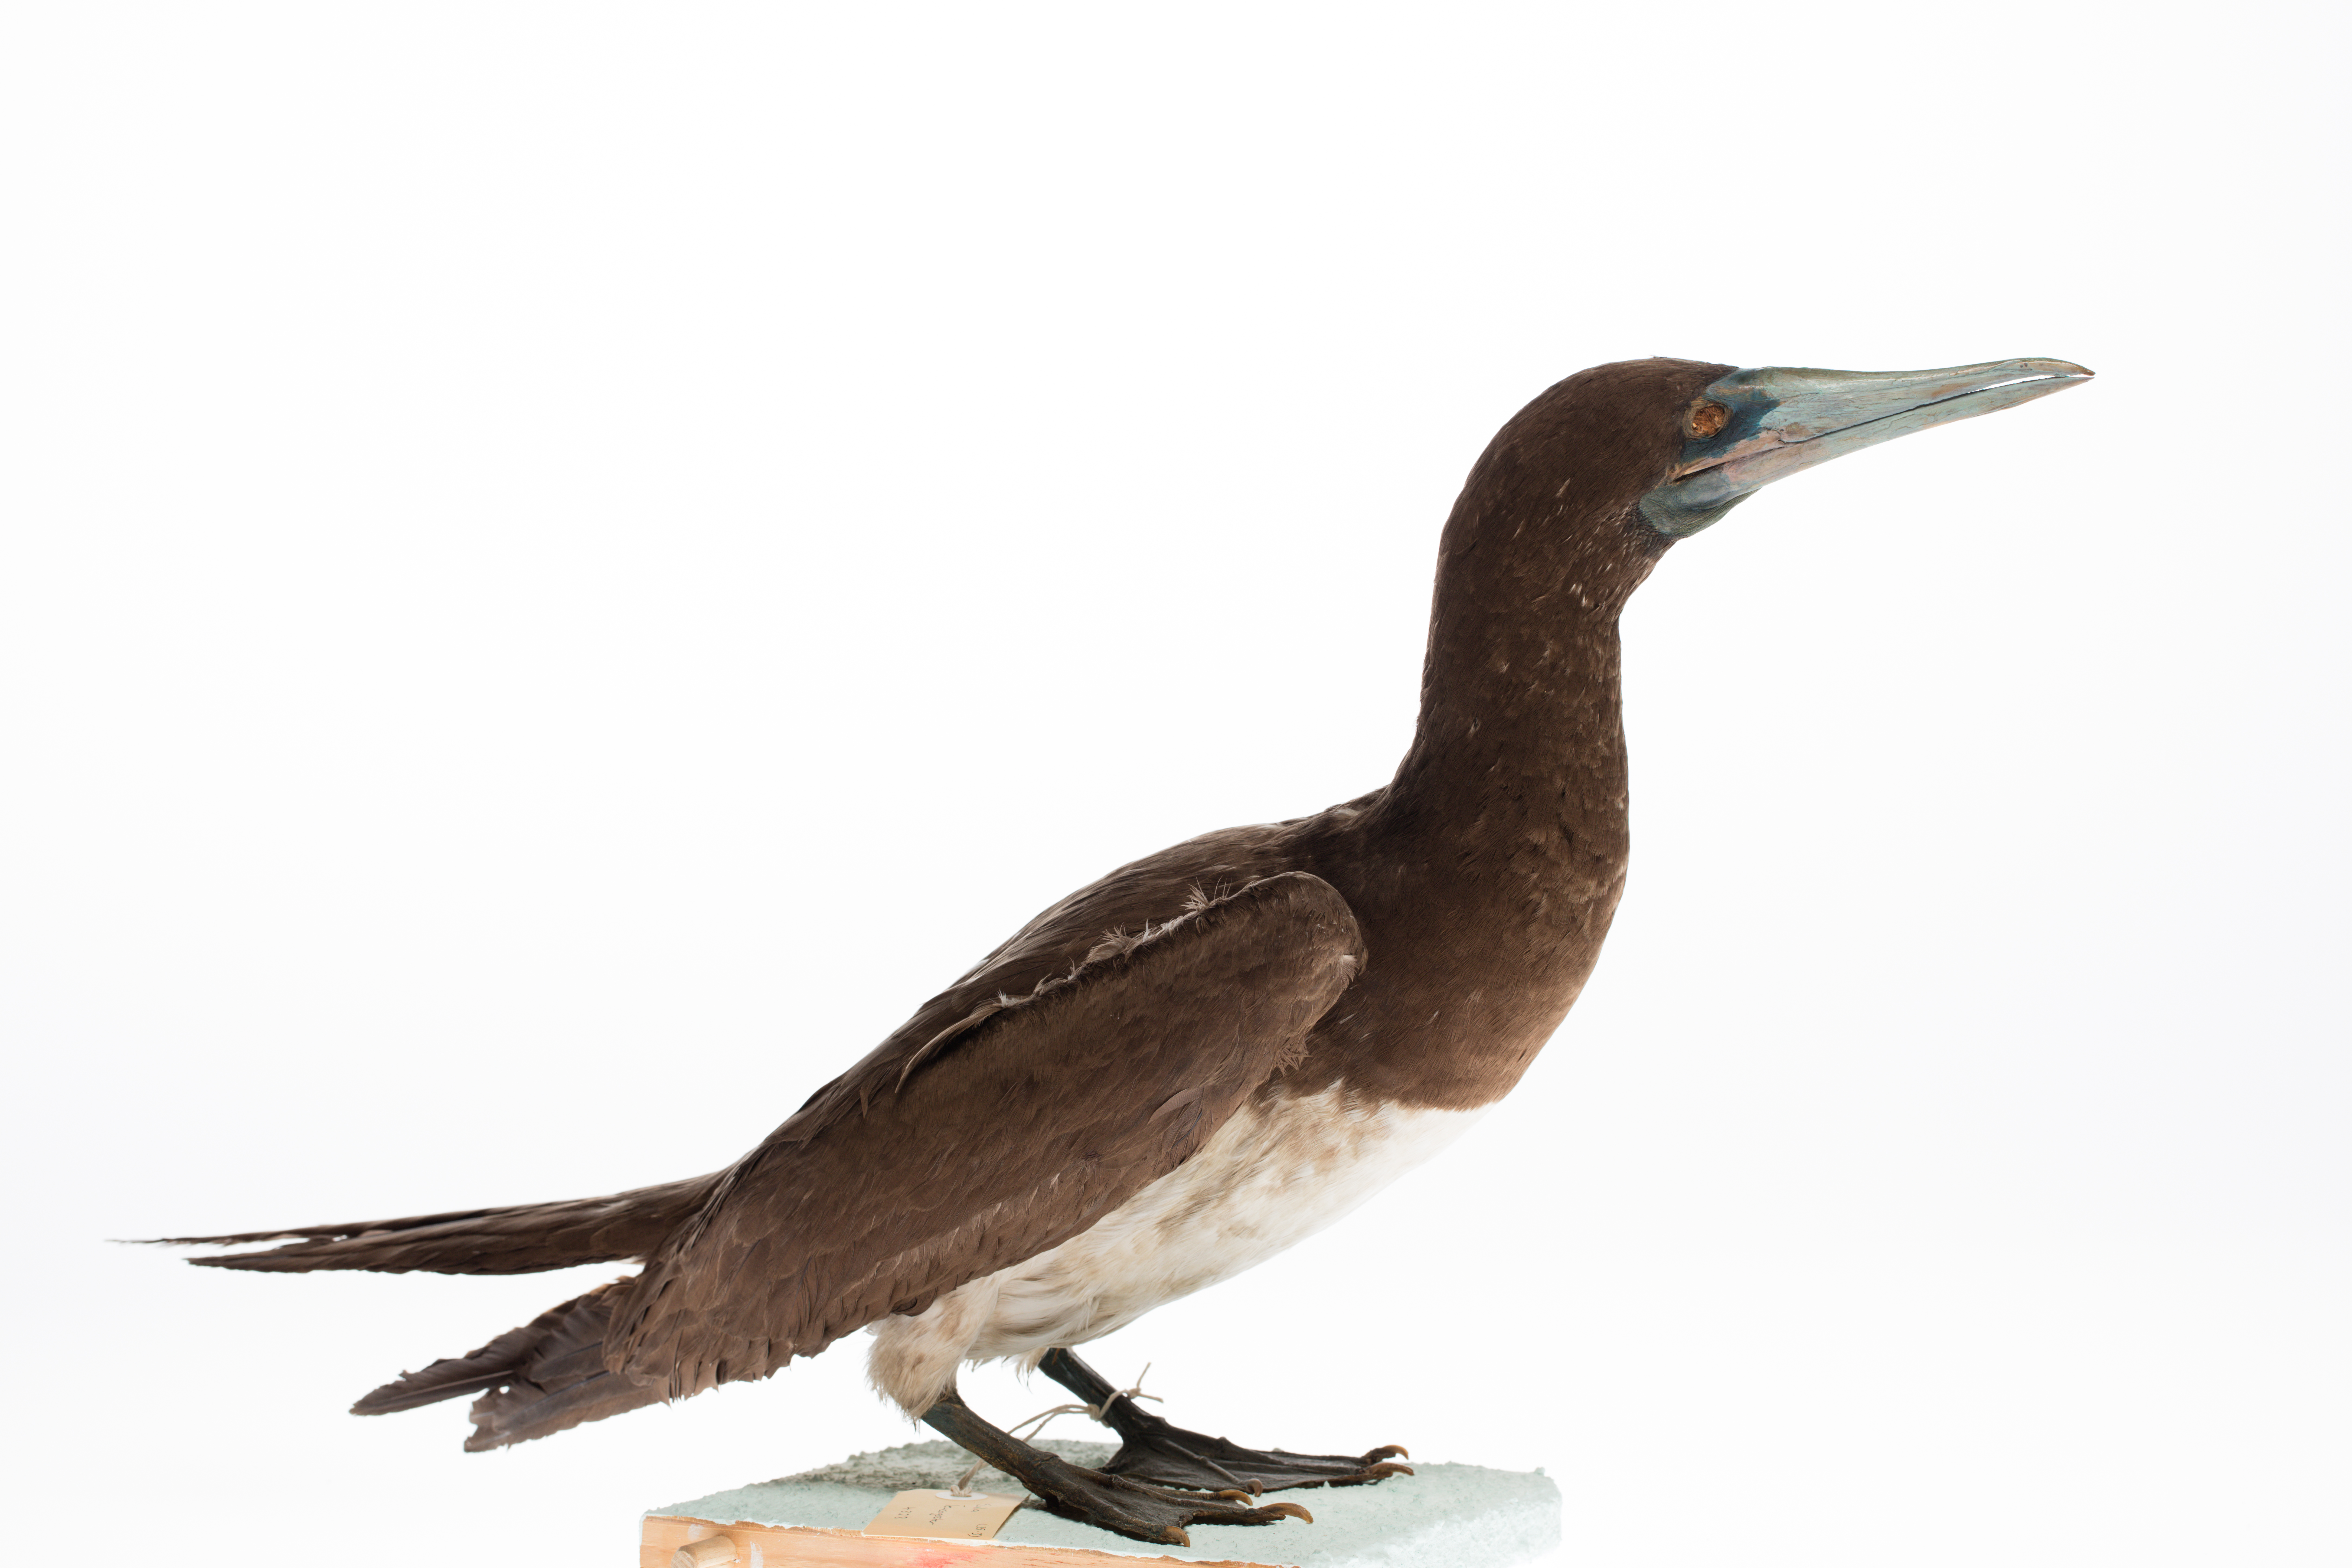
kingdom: Animalia
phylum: Chordata
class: Aves
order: Suliformes
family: Sulidae
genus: Sula
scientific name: Sula leucogaster
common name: Brown booby
